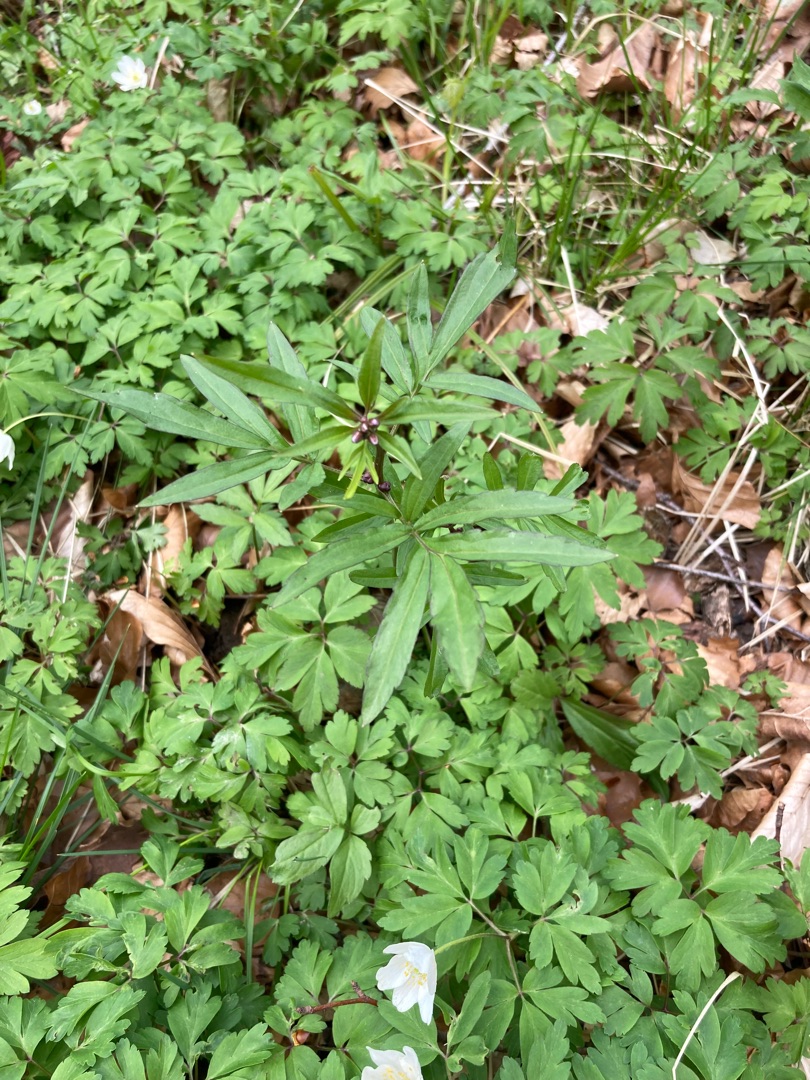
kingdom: Plantae
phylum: Tracheophyta
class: Magnoliopsida
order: Brassicales
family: Brassicaceae
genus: Cardamine
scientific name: Cardamine bulbifera
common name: Tandrod
